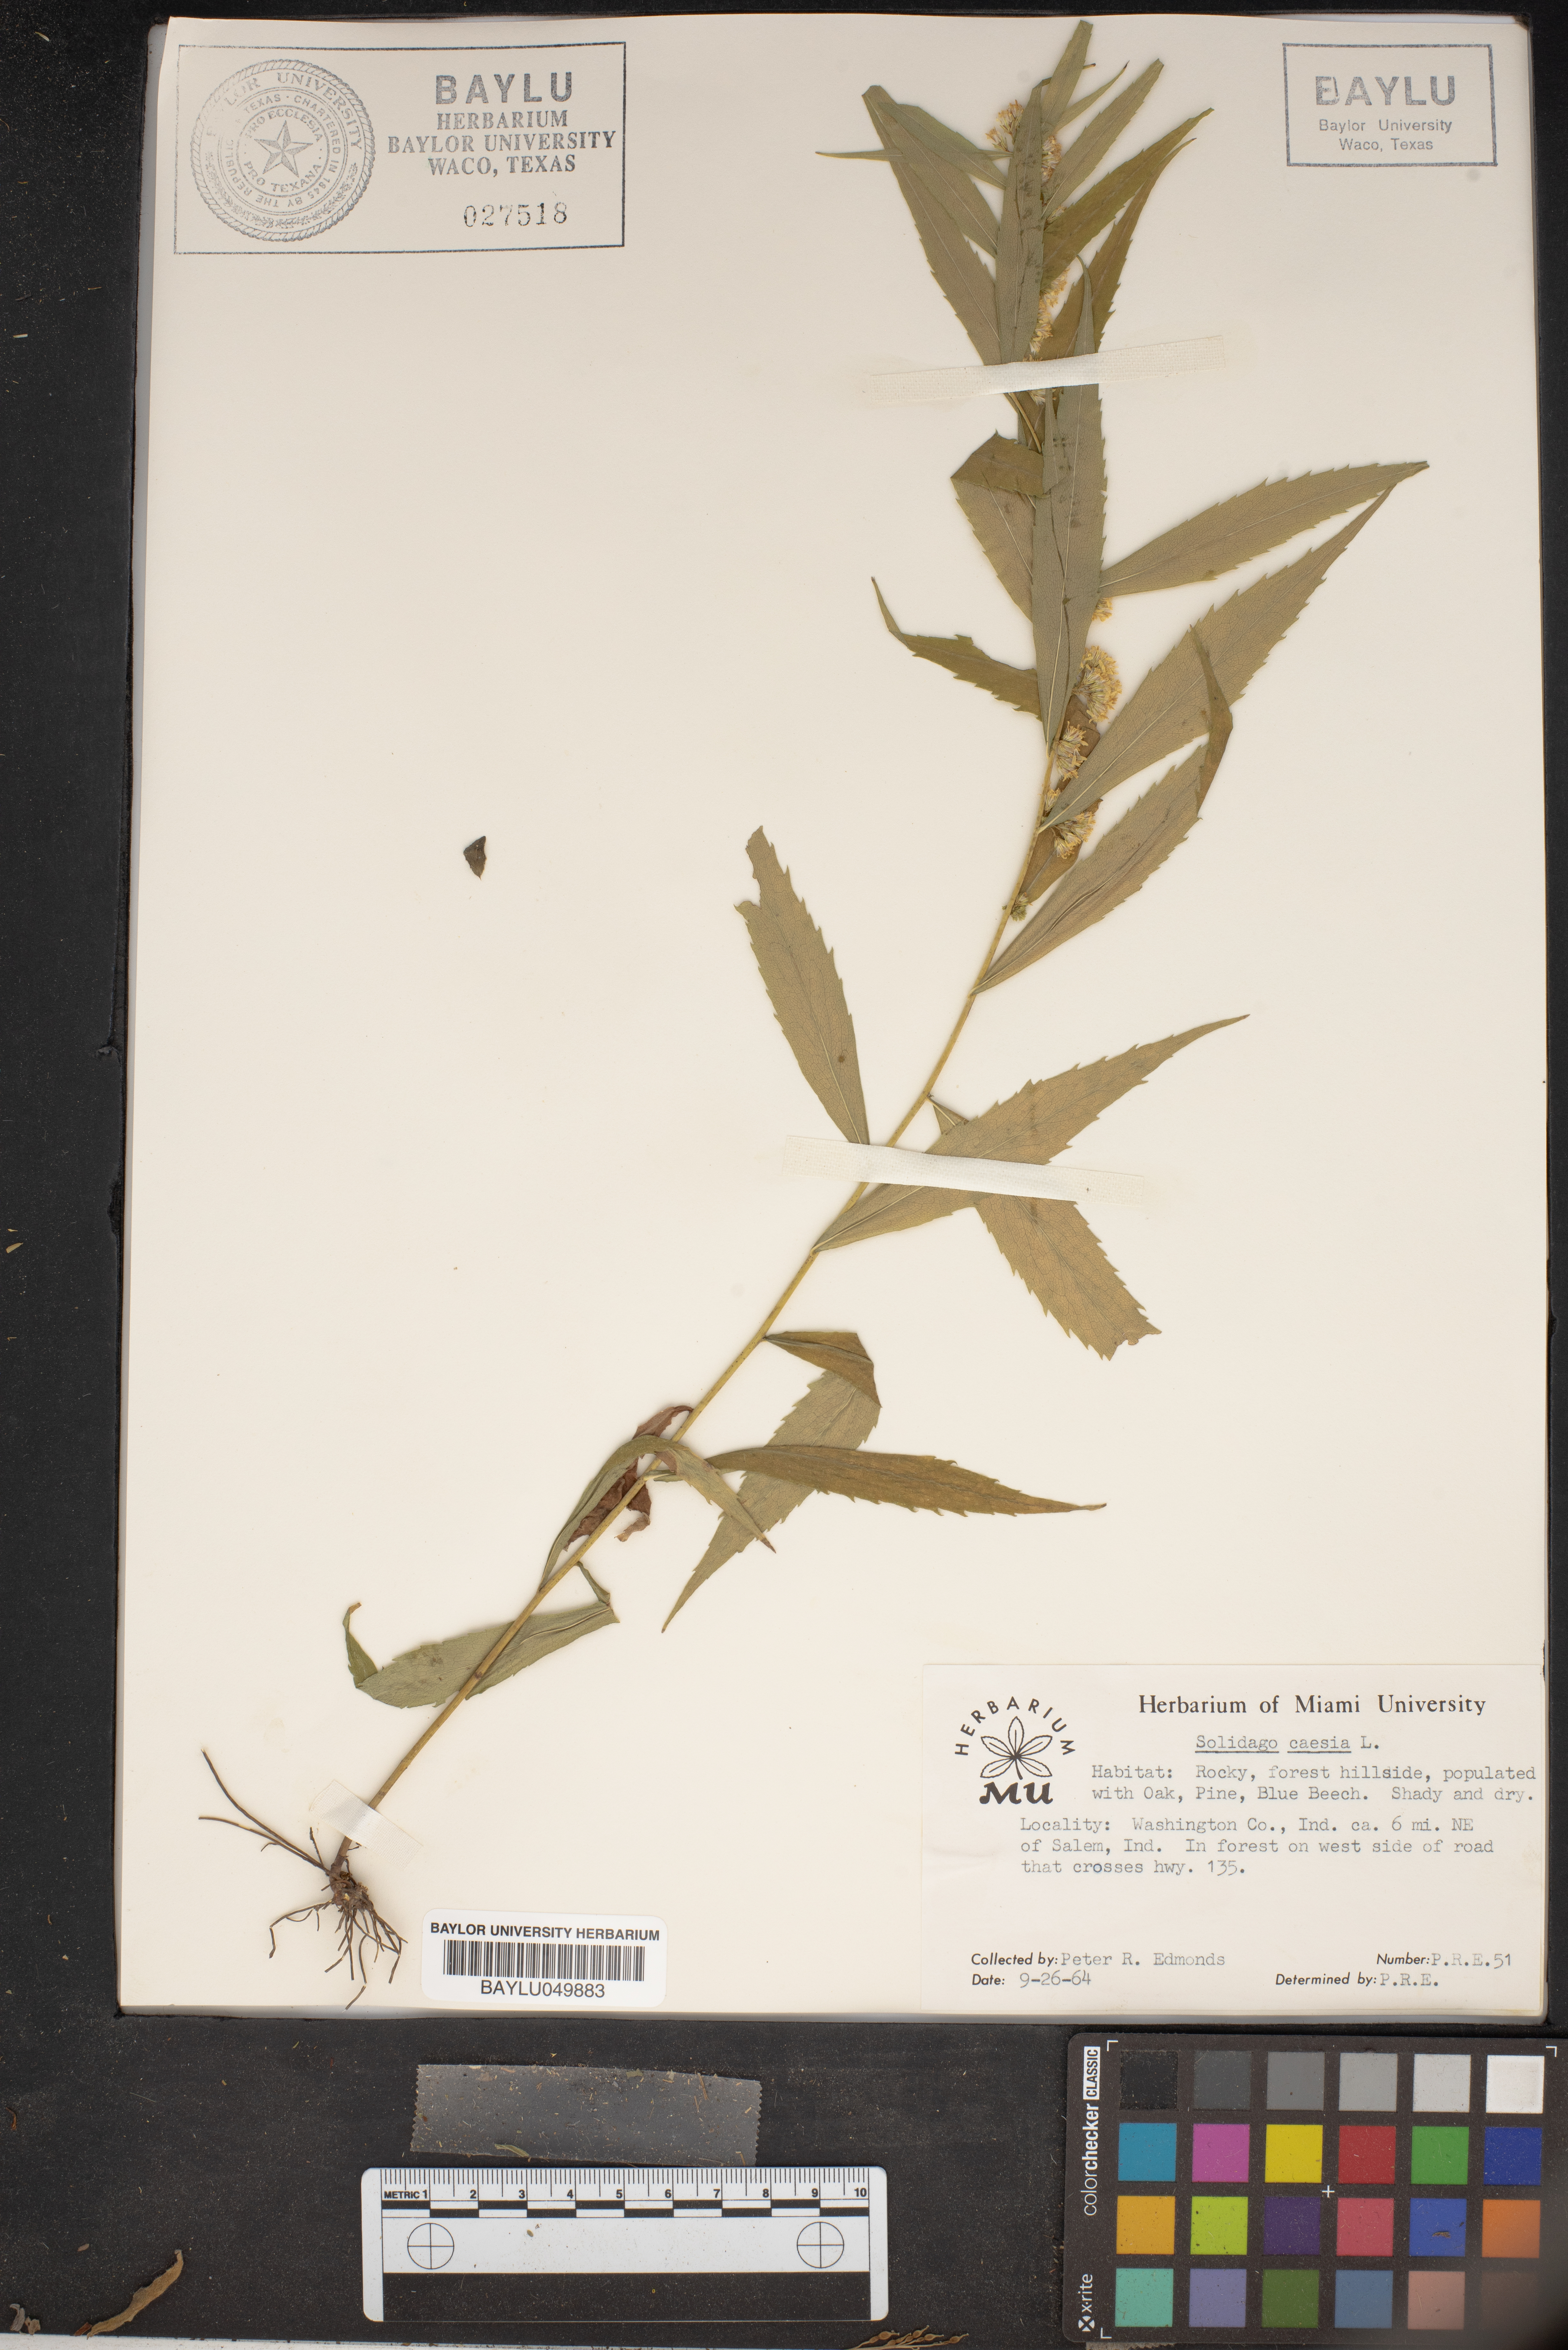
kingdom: Plantae
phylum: Tracheophyta
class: Magnoliopsida
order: Asterales
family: Asteraceae
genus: Solidago
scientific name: Solidago caesia
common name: Woodland goldenrod
